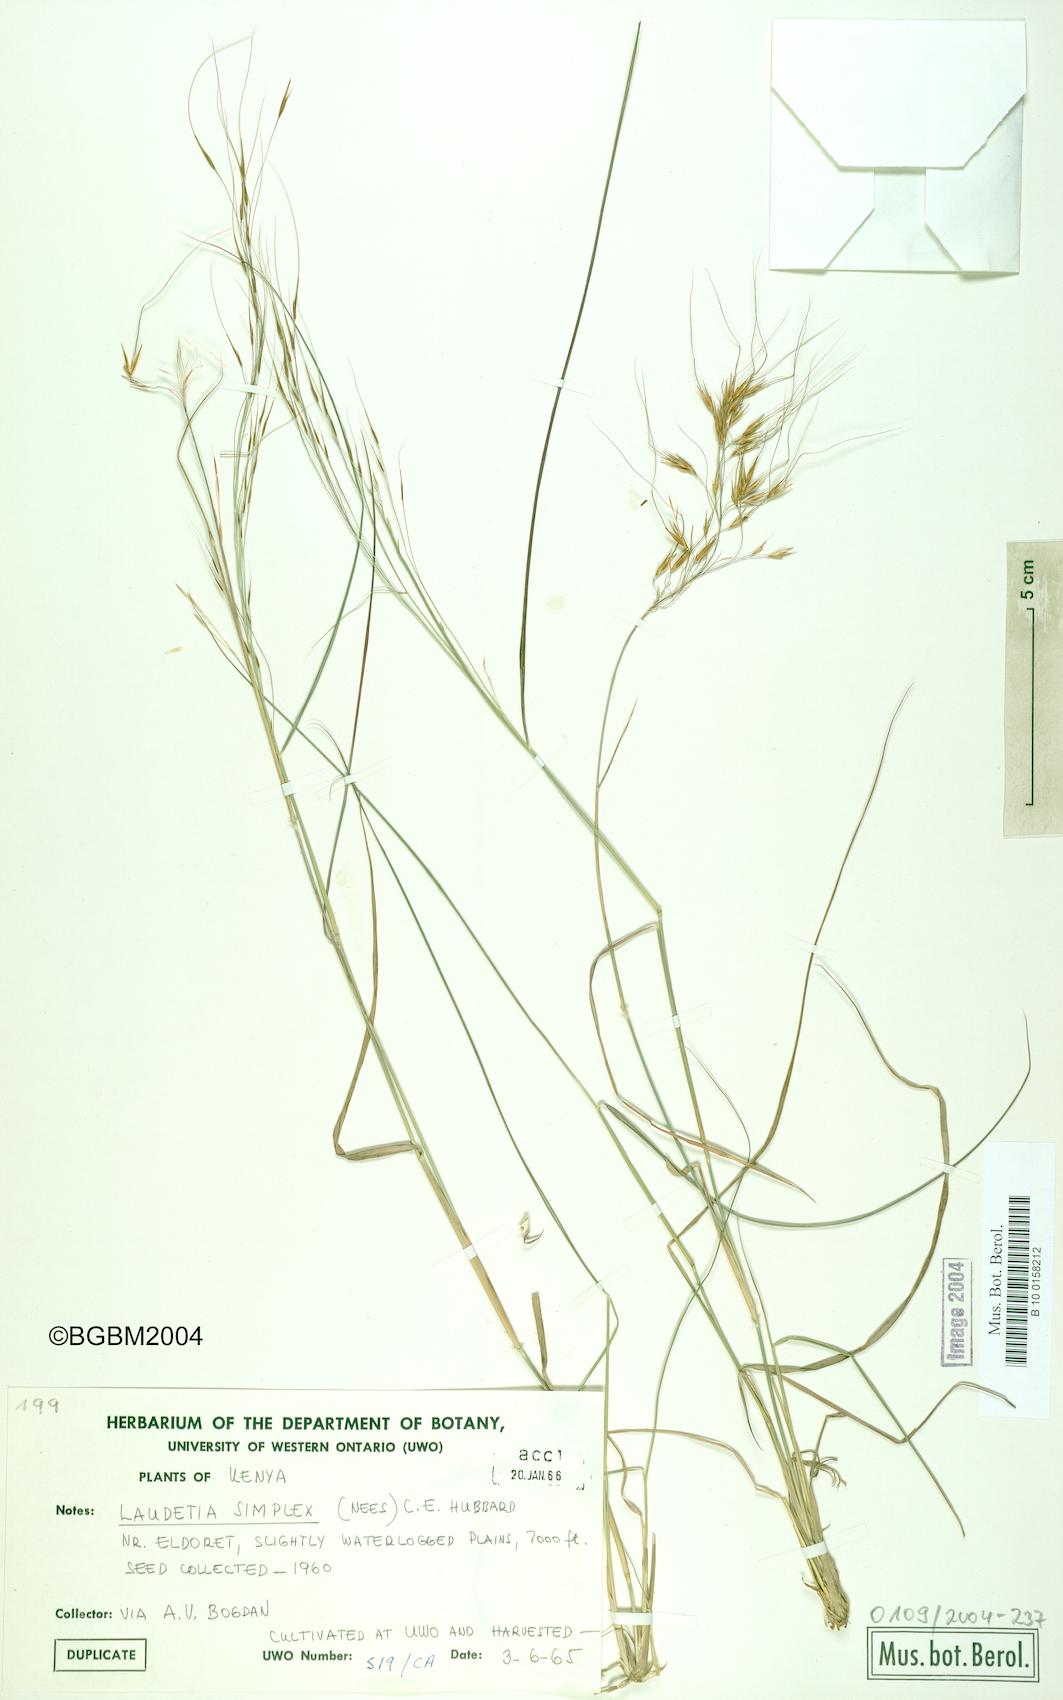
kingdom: Plantae
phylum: Tracheophyta
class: Liliopsida
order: Poales
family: Poaceae
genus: Loudetia
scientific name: Loudetia simplex
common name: Common russet grass
